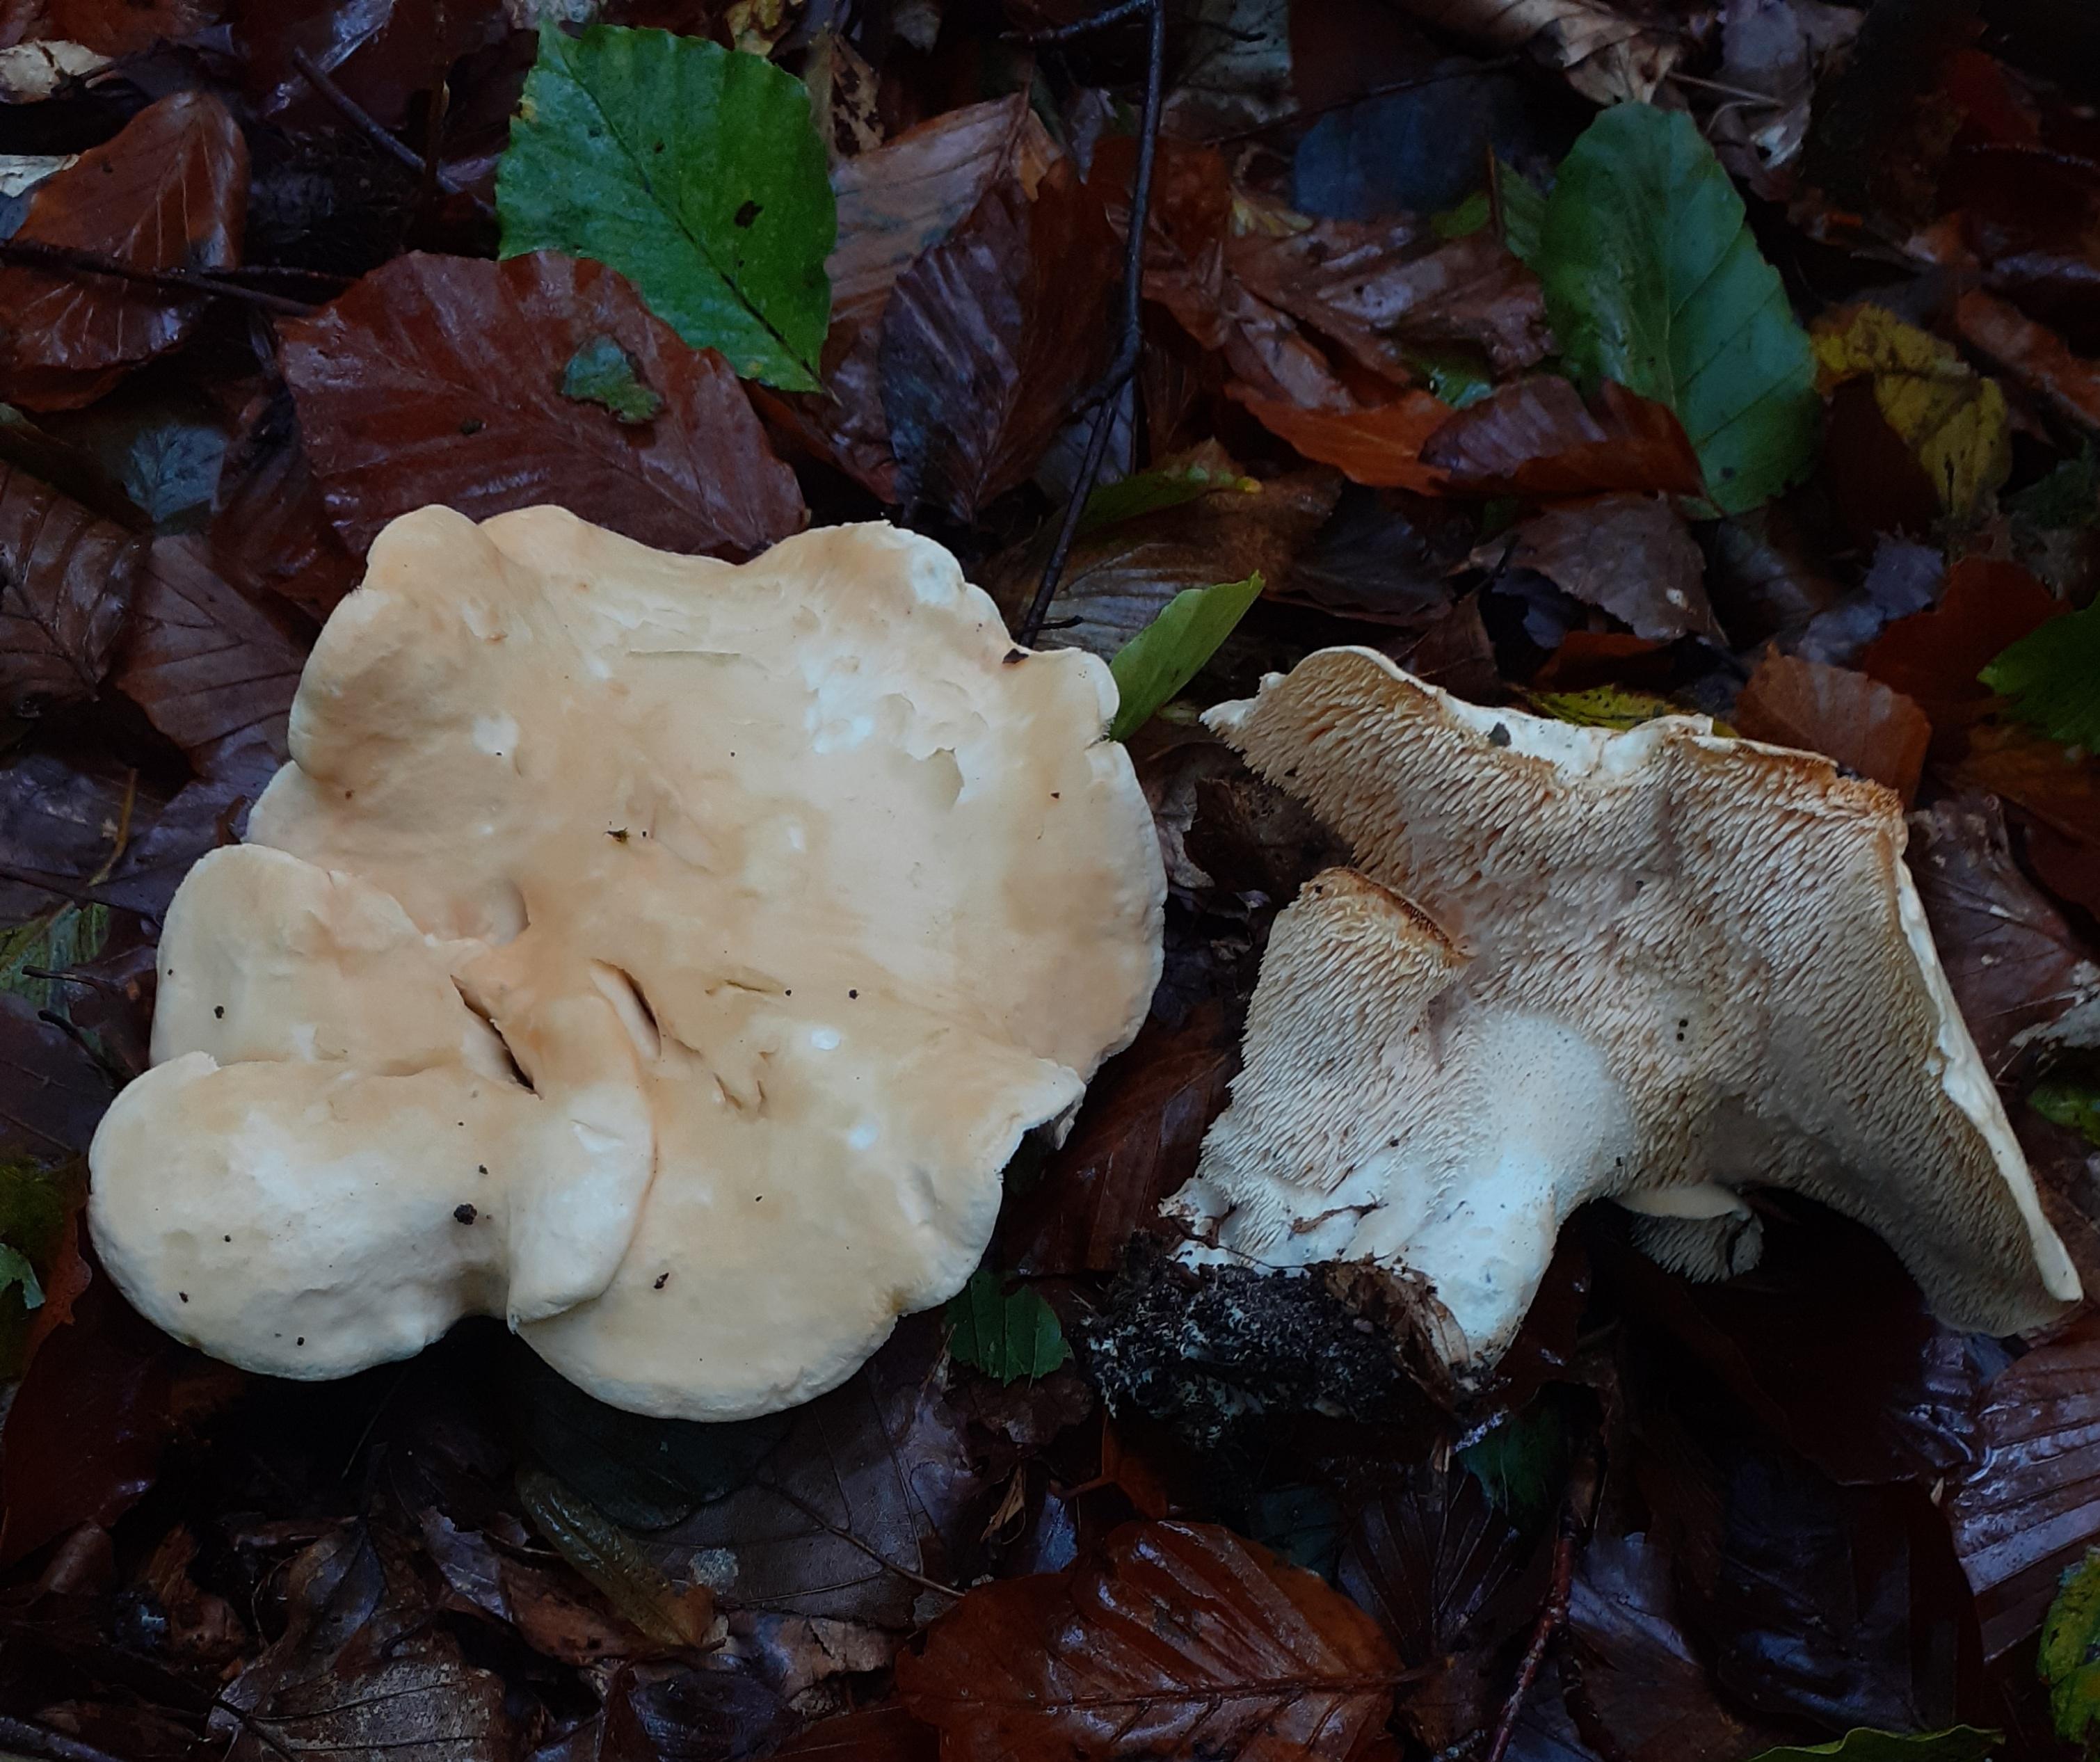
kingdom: Fungi
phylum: Basidiomycota
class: Agaricomycetes
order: Cantharellales
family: Hydnaceae
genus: Hydnum
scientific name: Hydnum repandum
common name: almindelig pigsvamp
